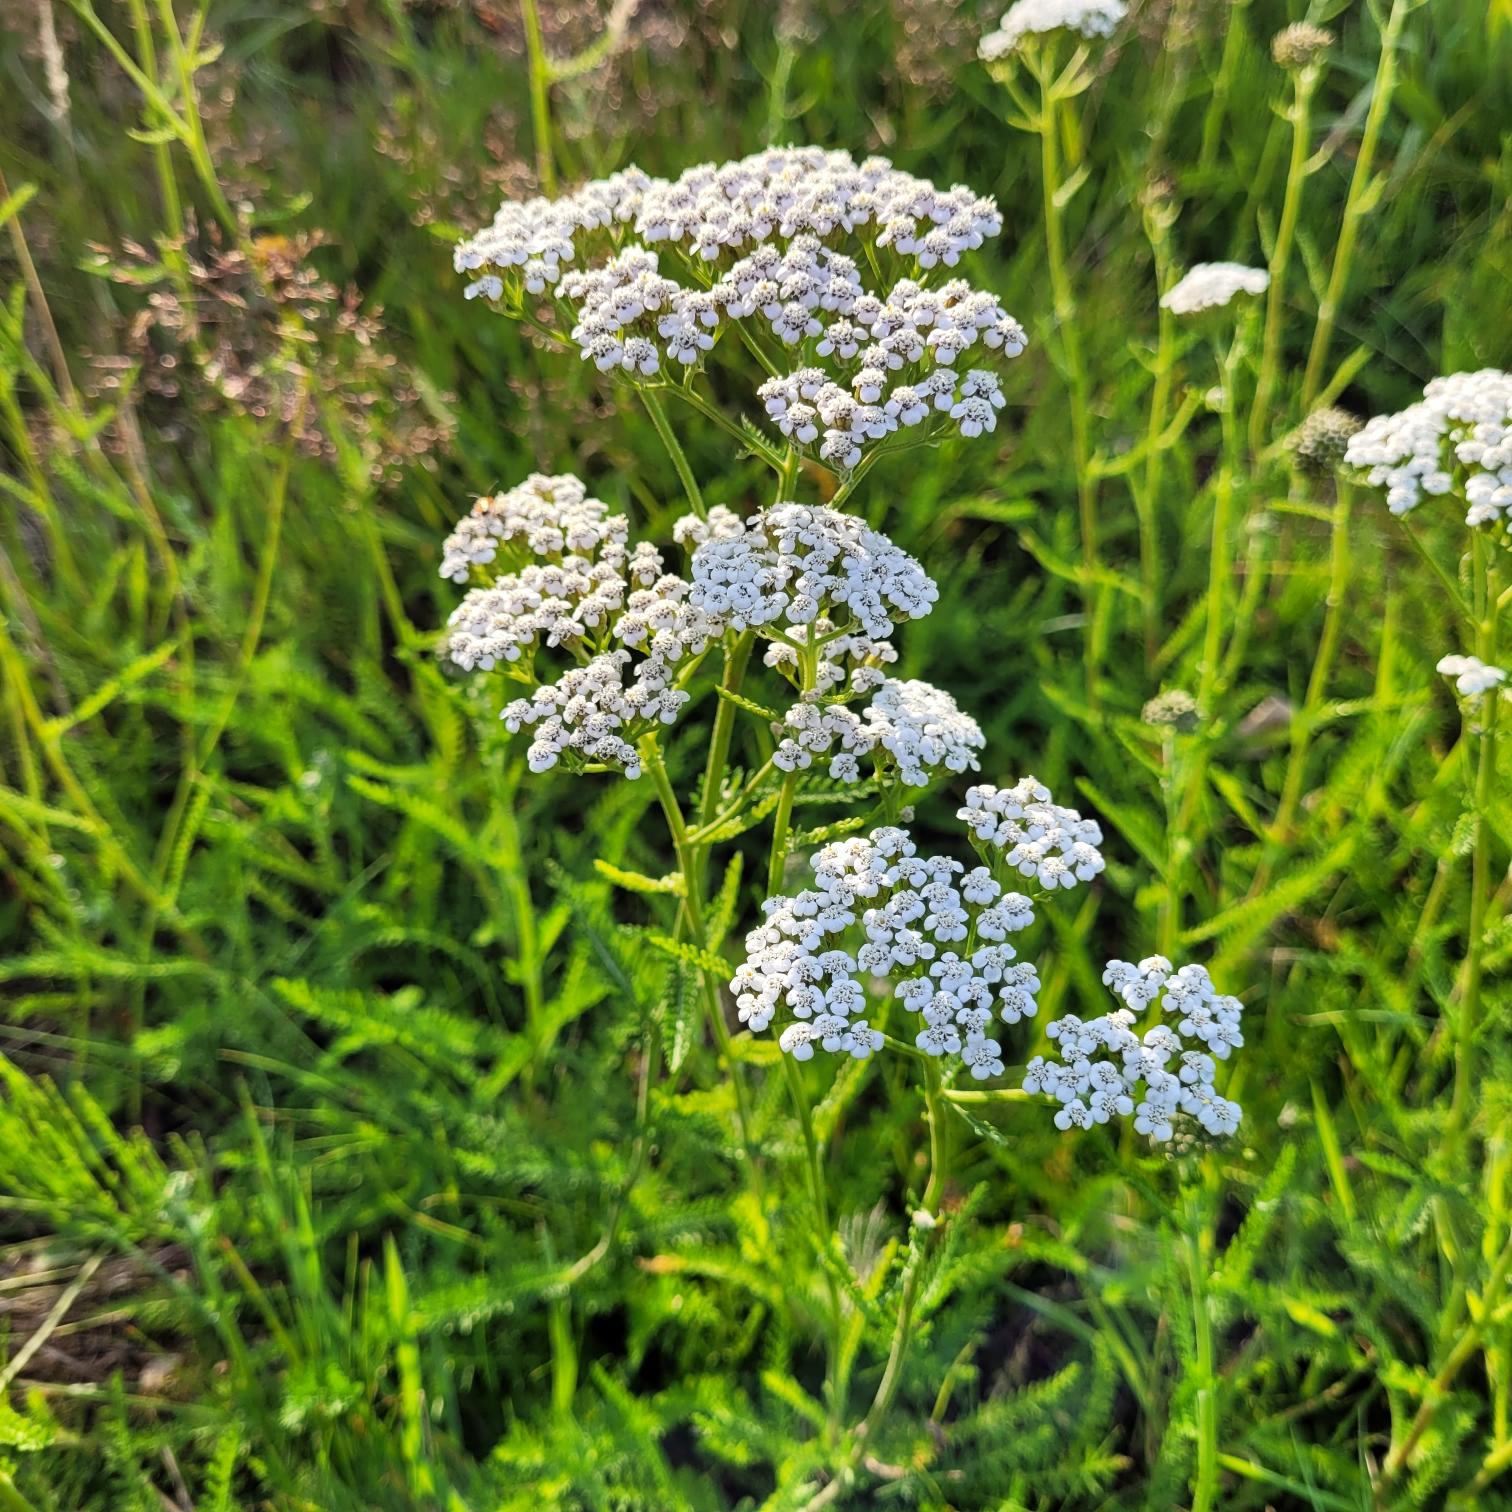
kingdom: Plantae
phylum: Tracheophyta
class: Magnoliopsida
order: Asterales
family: Asteraceae
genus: Achillea
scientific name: Achillea millefolium
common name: Almindelig røllike
